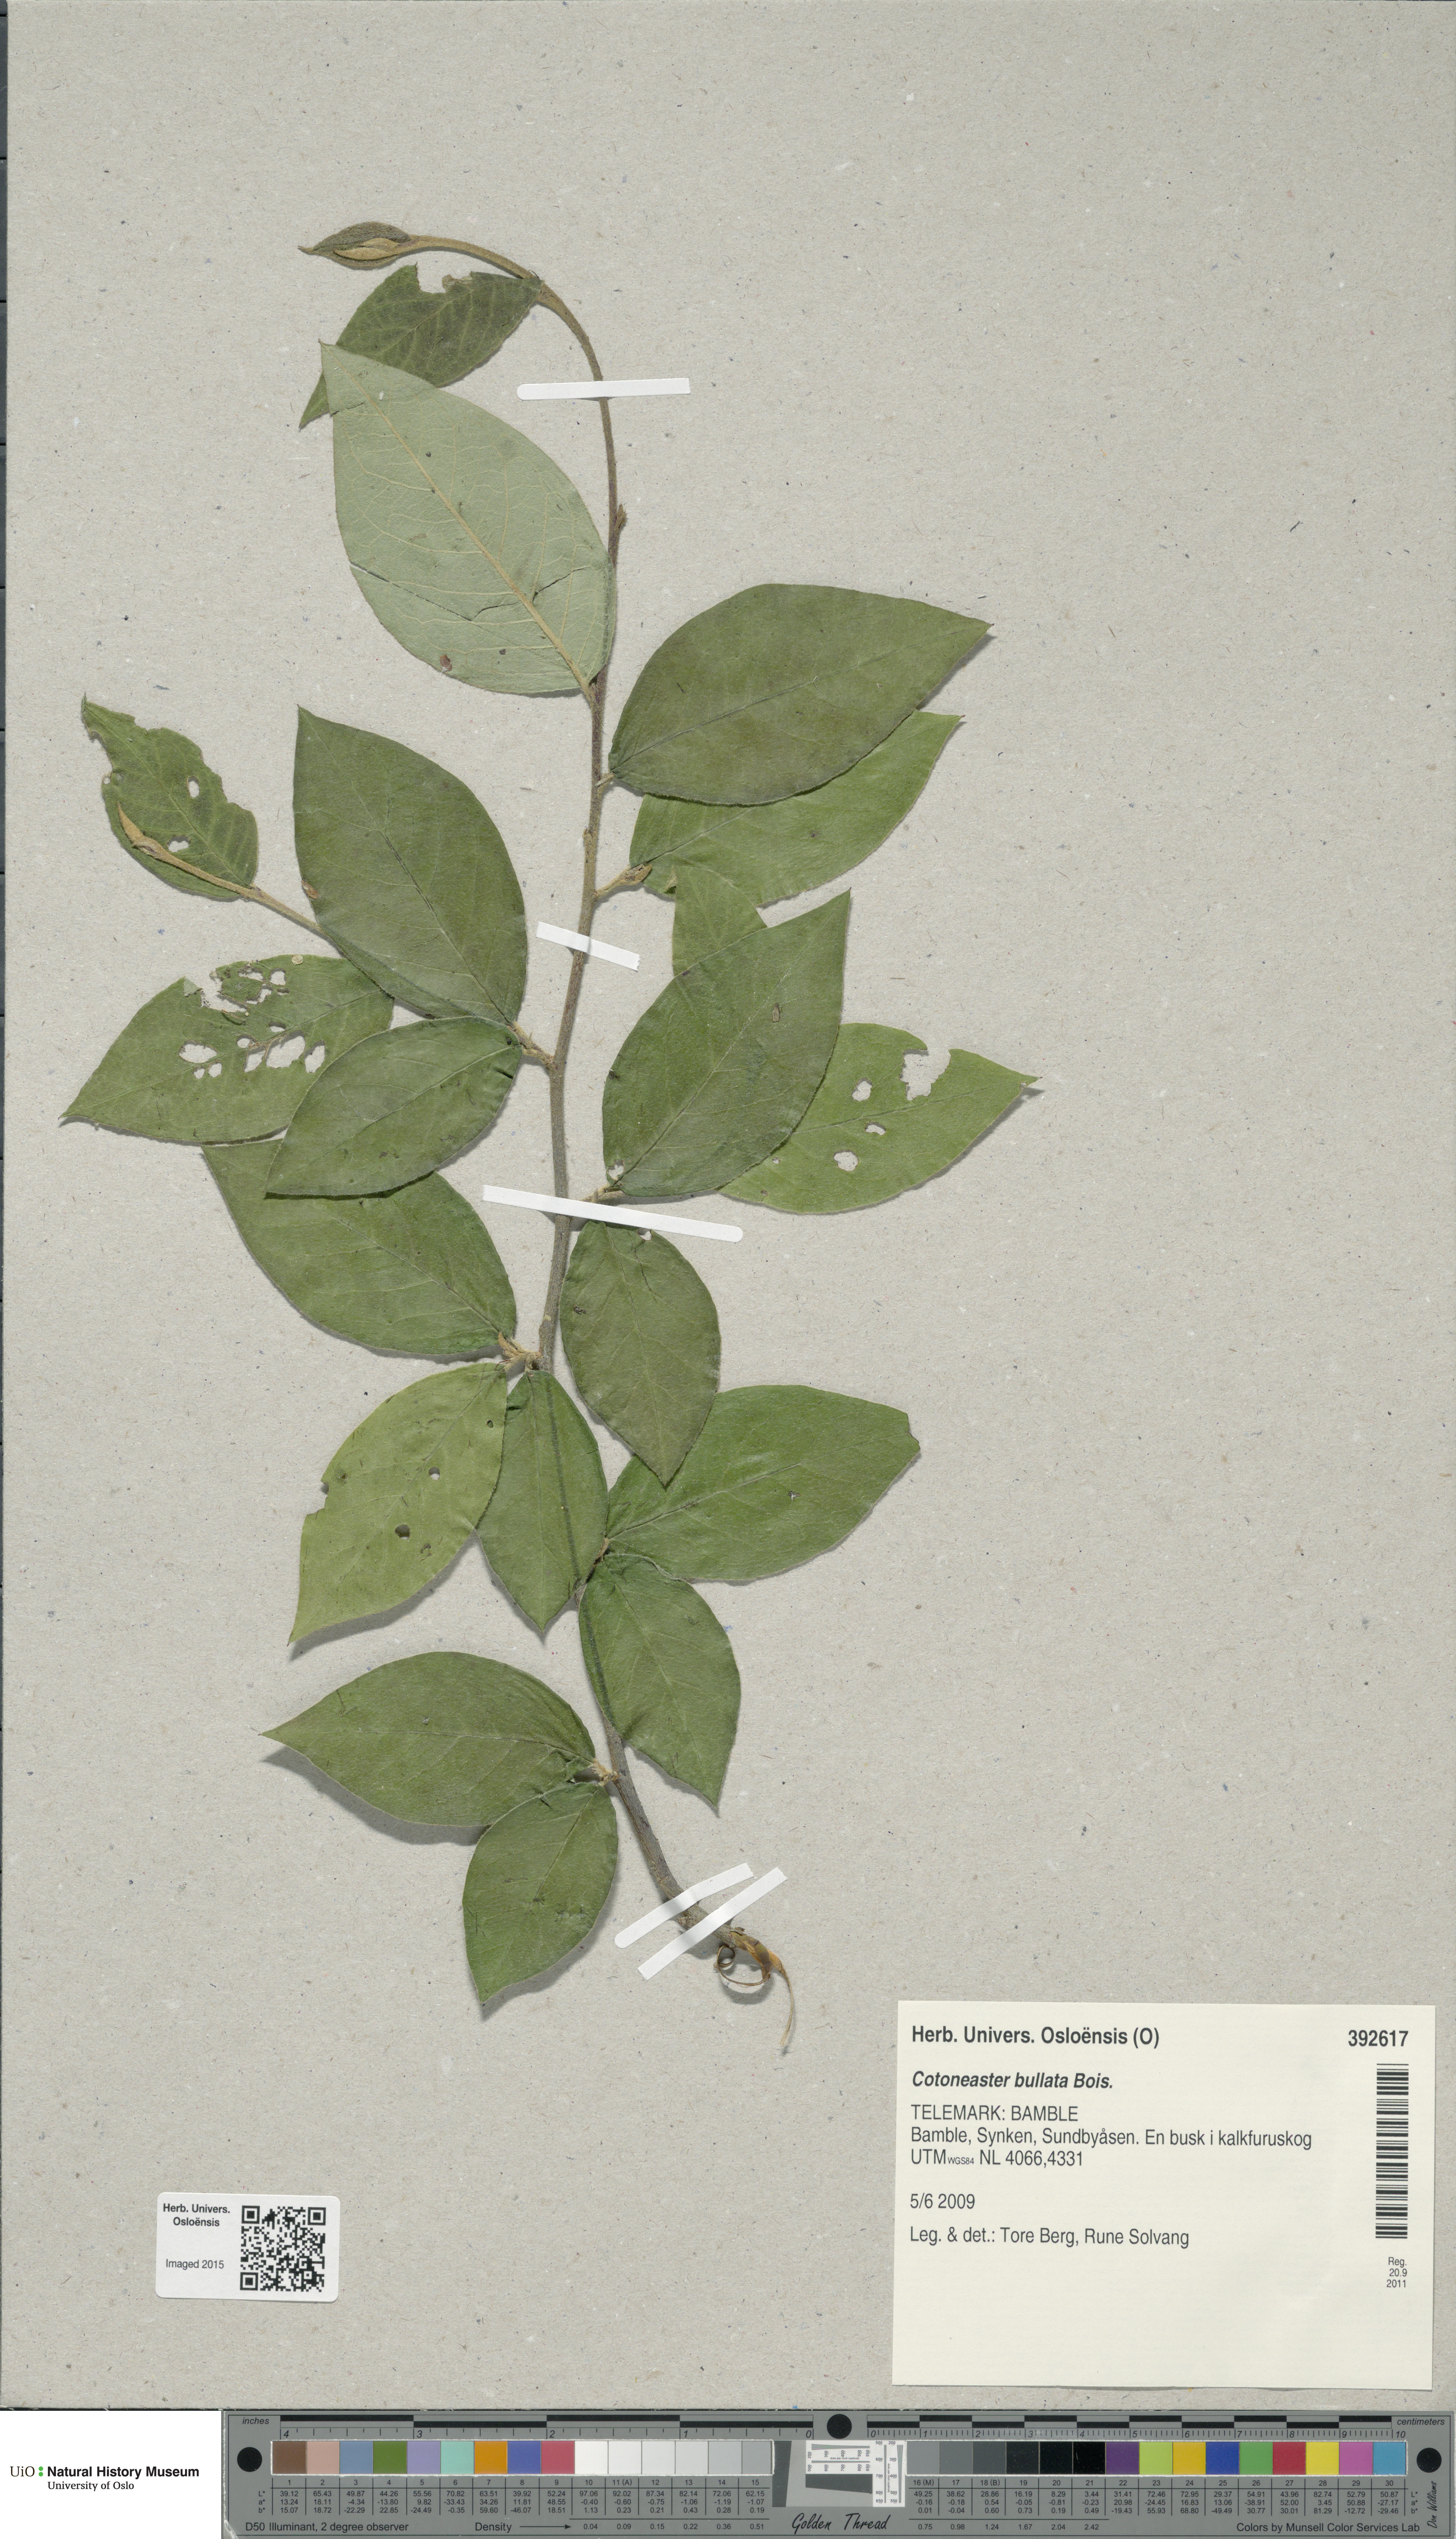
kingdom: Plantae
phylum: Tracheophyta
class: Magnoliopsida
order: Rosales
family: Rosaceae
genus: Cotoneaster
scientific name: Cotoneaster bullatus
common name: Hollyberry cotoneaster
